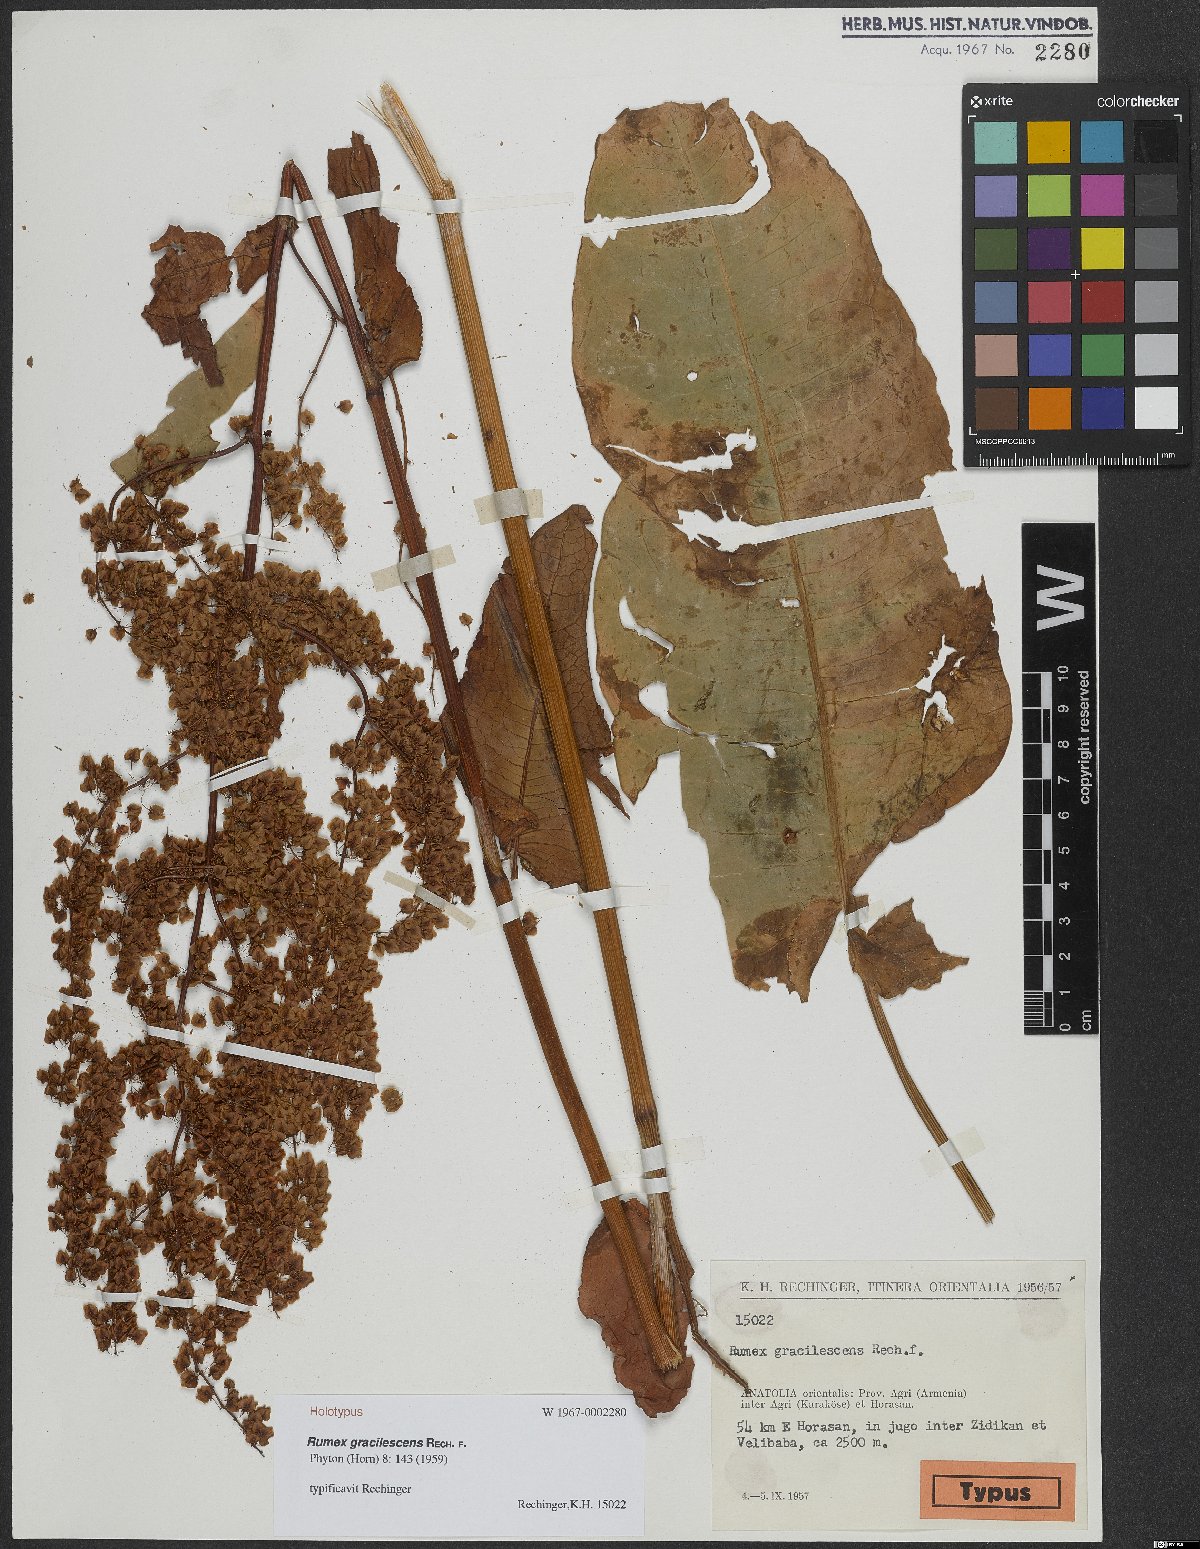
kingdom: Plantae
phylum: Tracheophyta
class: Magnoliopsida
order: Caryophyllales
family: Polygonaceae
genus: Rumex
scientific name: Rumex gracilescens
